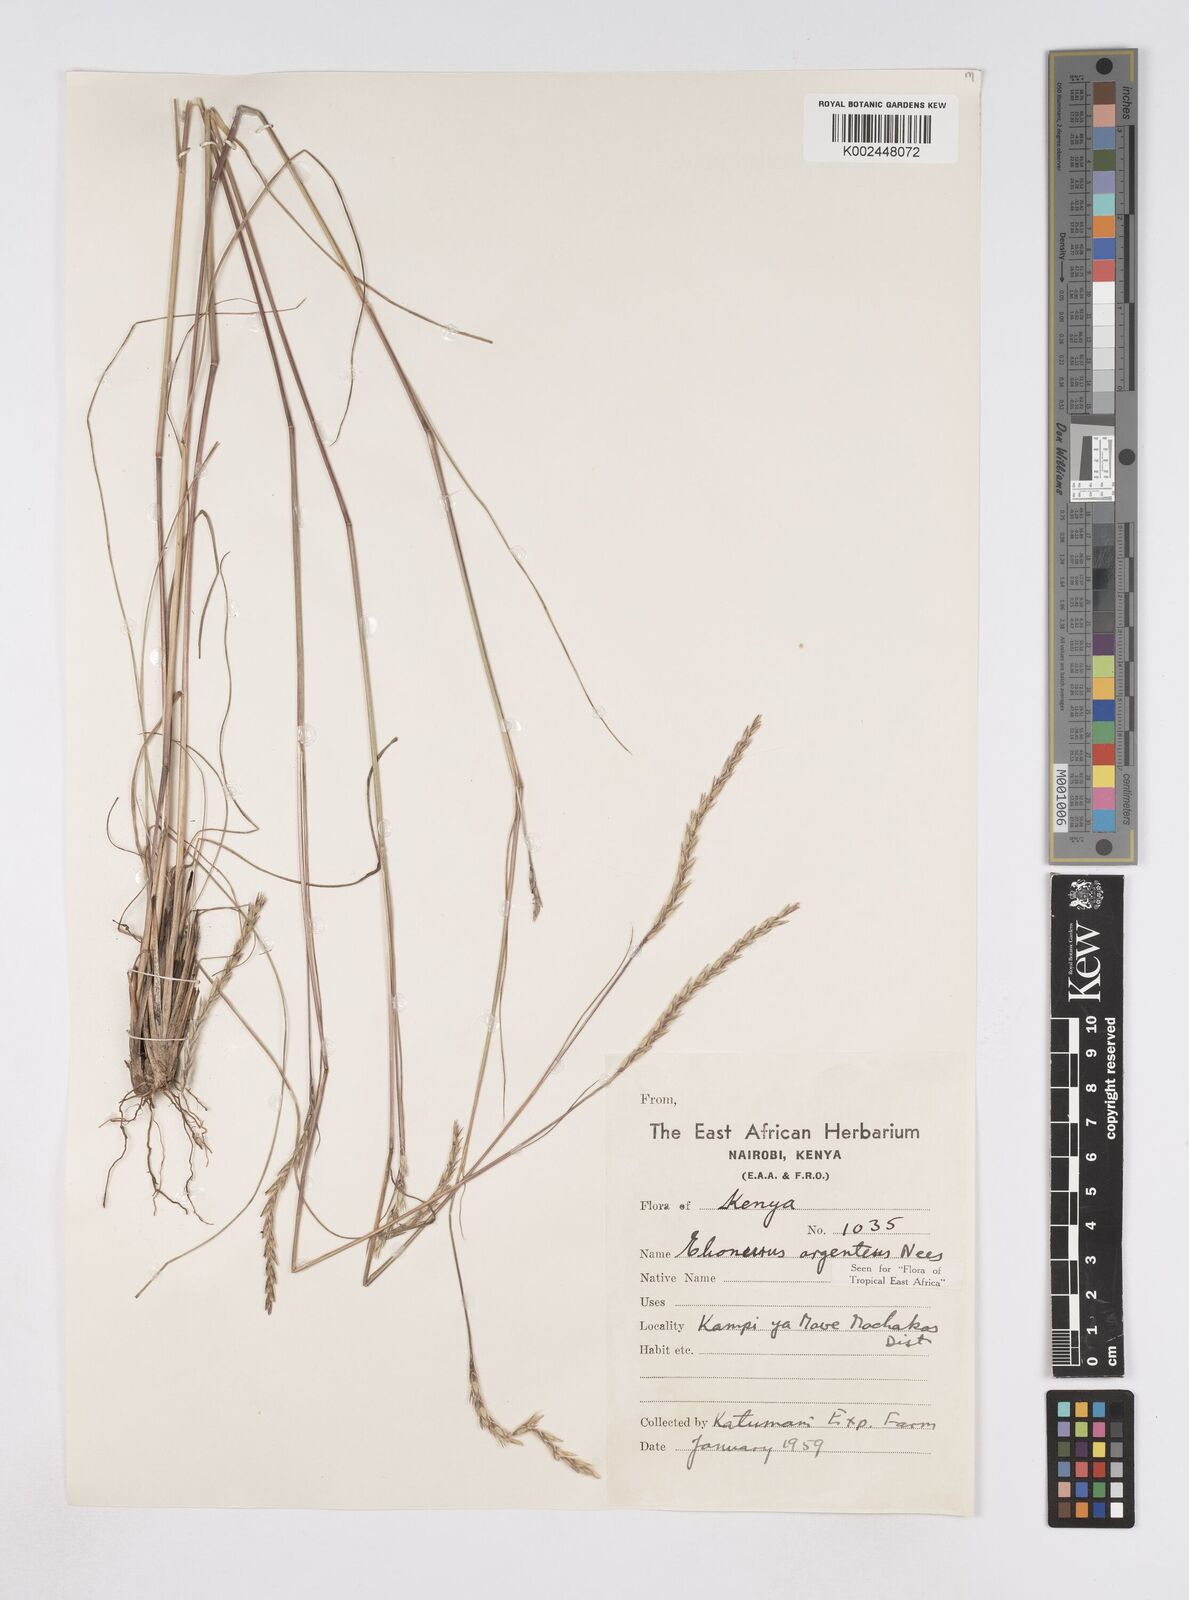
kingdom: Plantae
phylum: Tracheophyta
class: Liliopsida
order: Poales
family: Poaceae
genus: Elionurus
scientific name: Elionurus muticus
